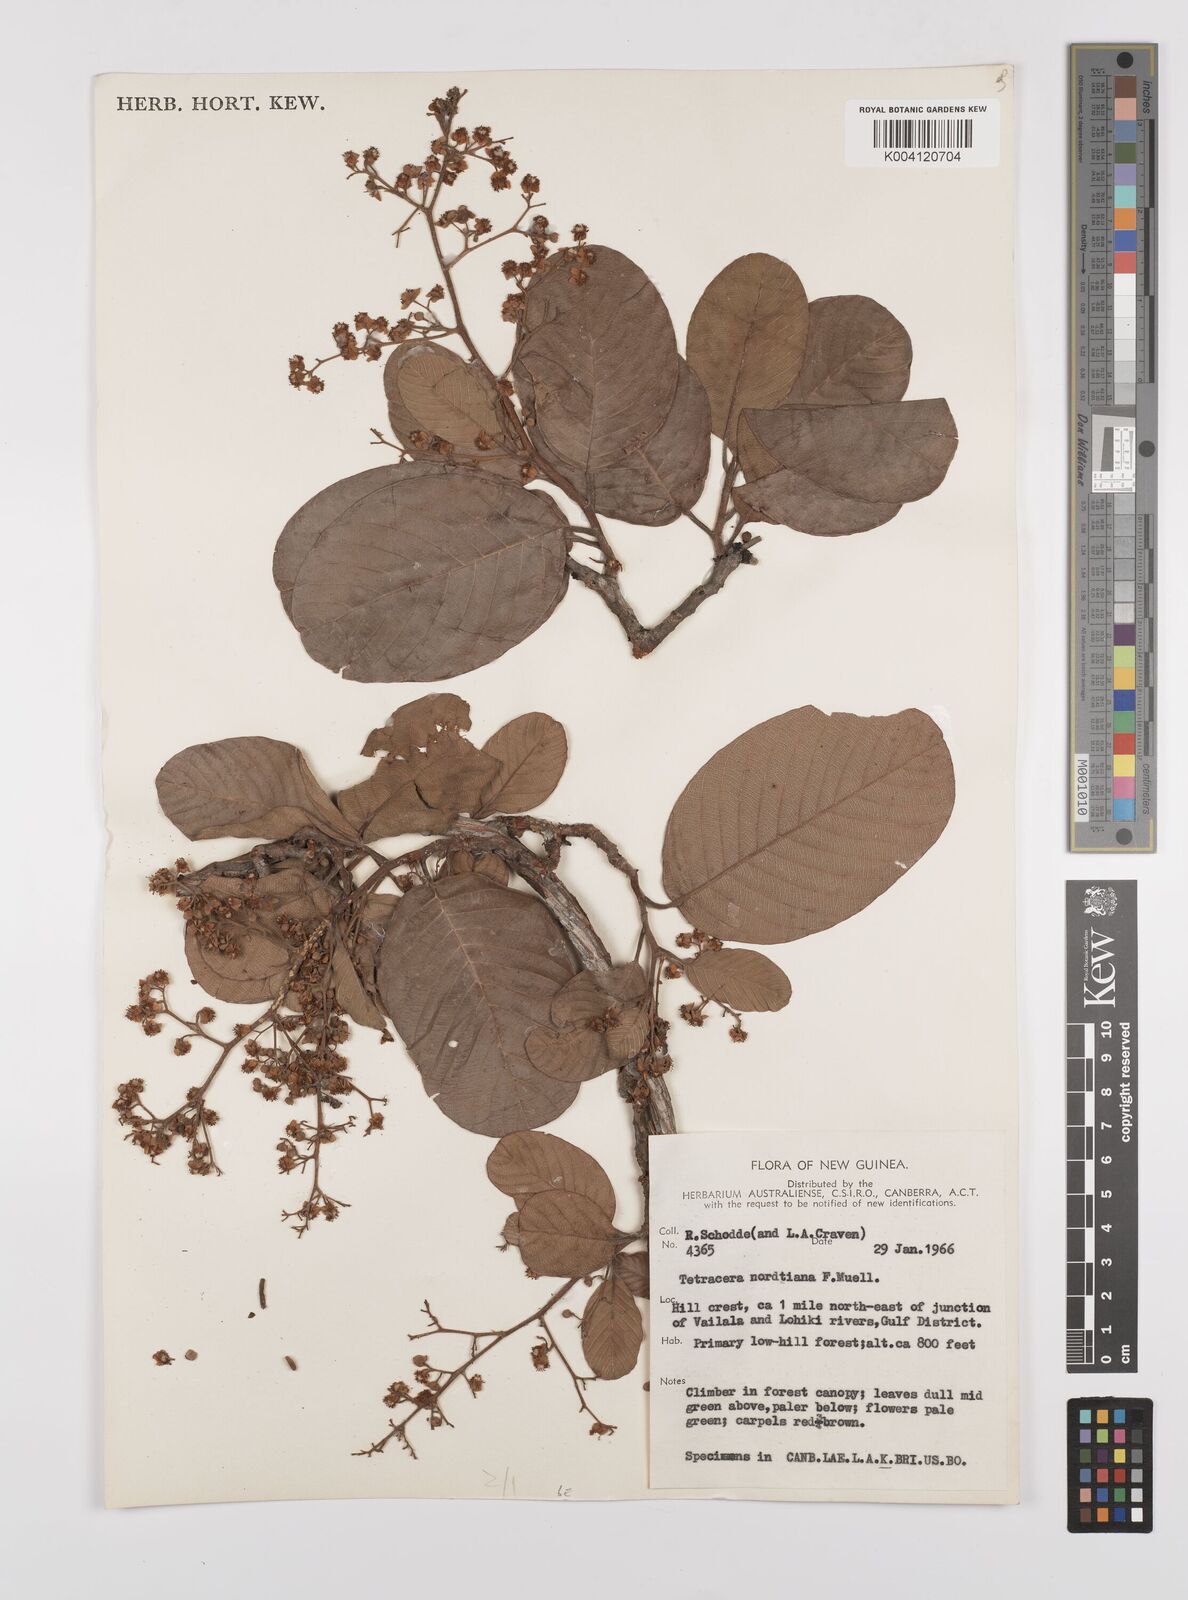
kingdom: Plantae
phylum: Tracheophyta
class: Magnoliopsida
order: Dilleniales
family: Dilleniaceae
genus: Tetracera
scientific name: Tetracera nordtiana
